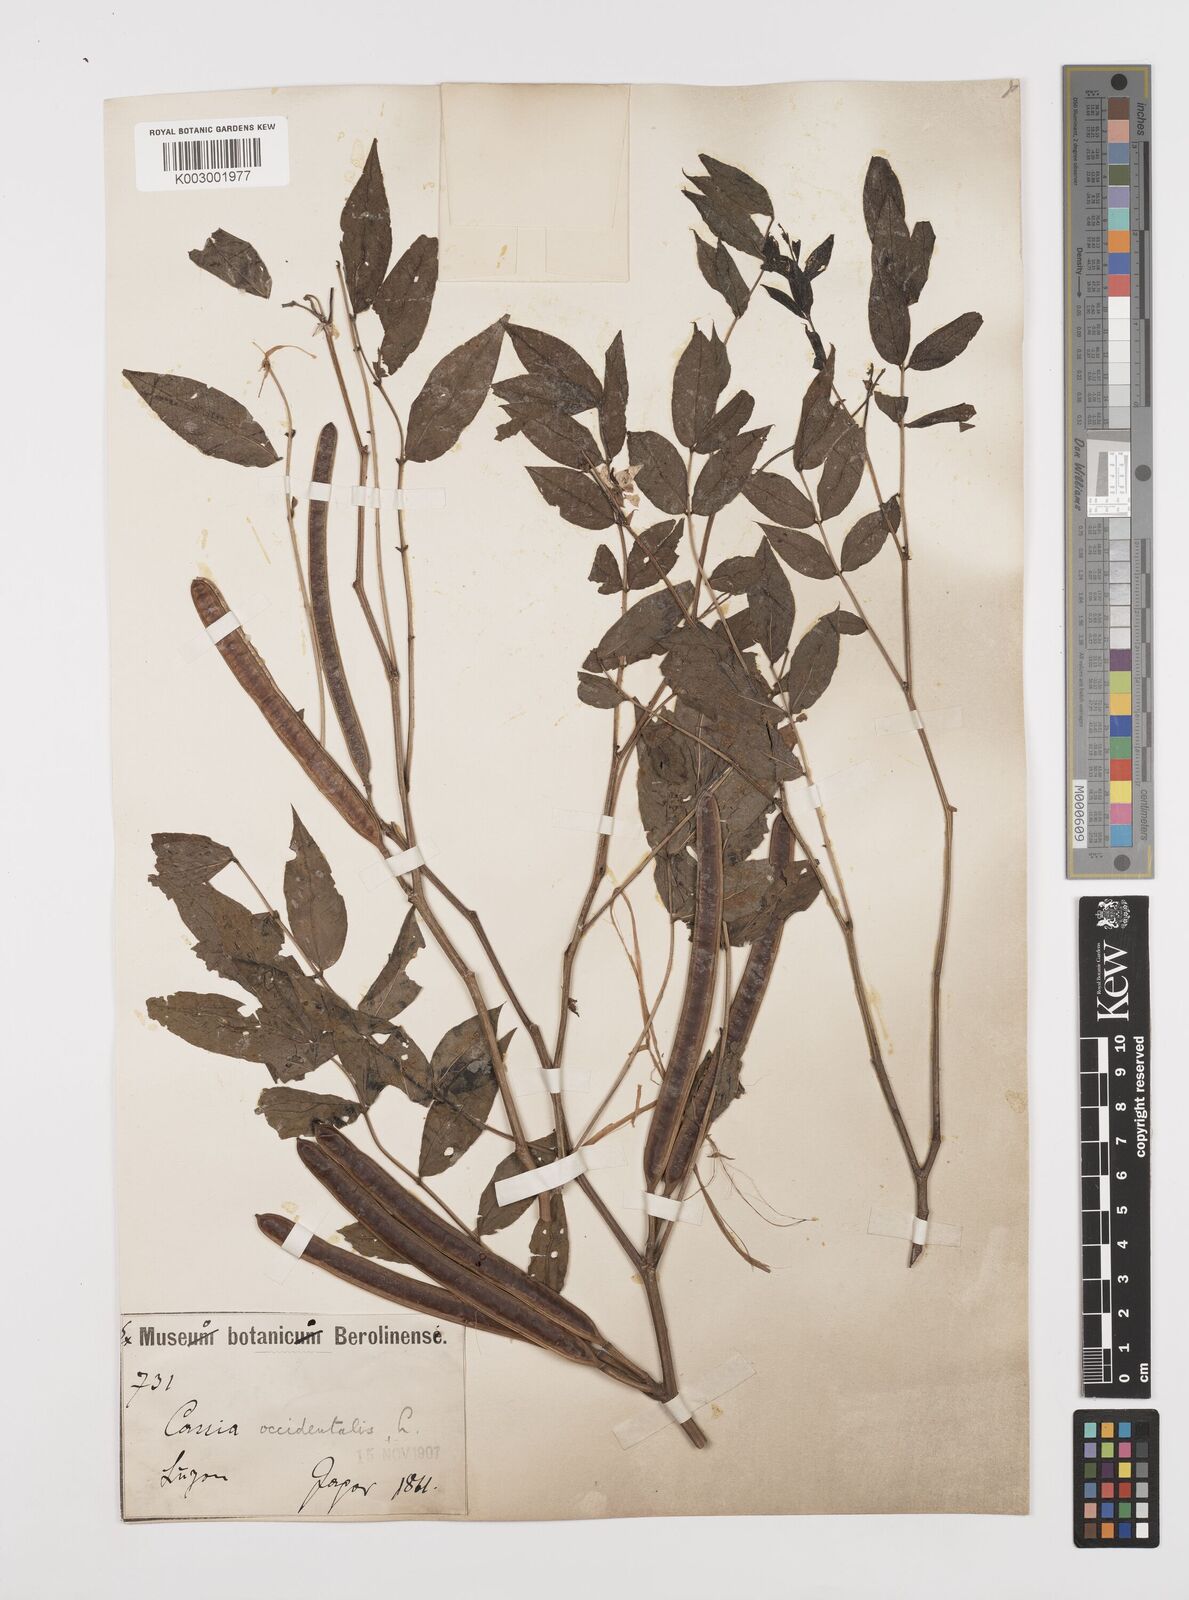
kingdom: Plantae
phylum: Tracheophyta
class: Magnoliopsida
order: Fabales
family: Fabaceae
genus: Senna
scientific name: Senna occidentalis
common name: Septicweed
